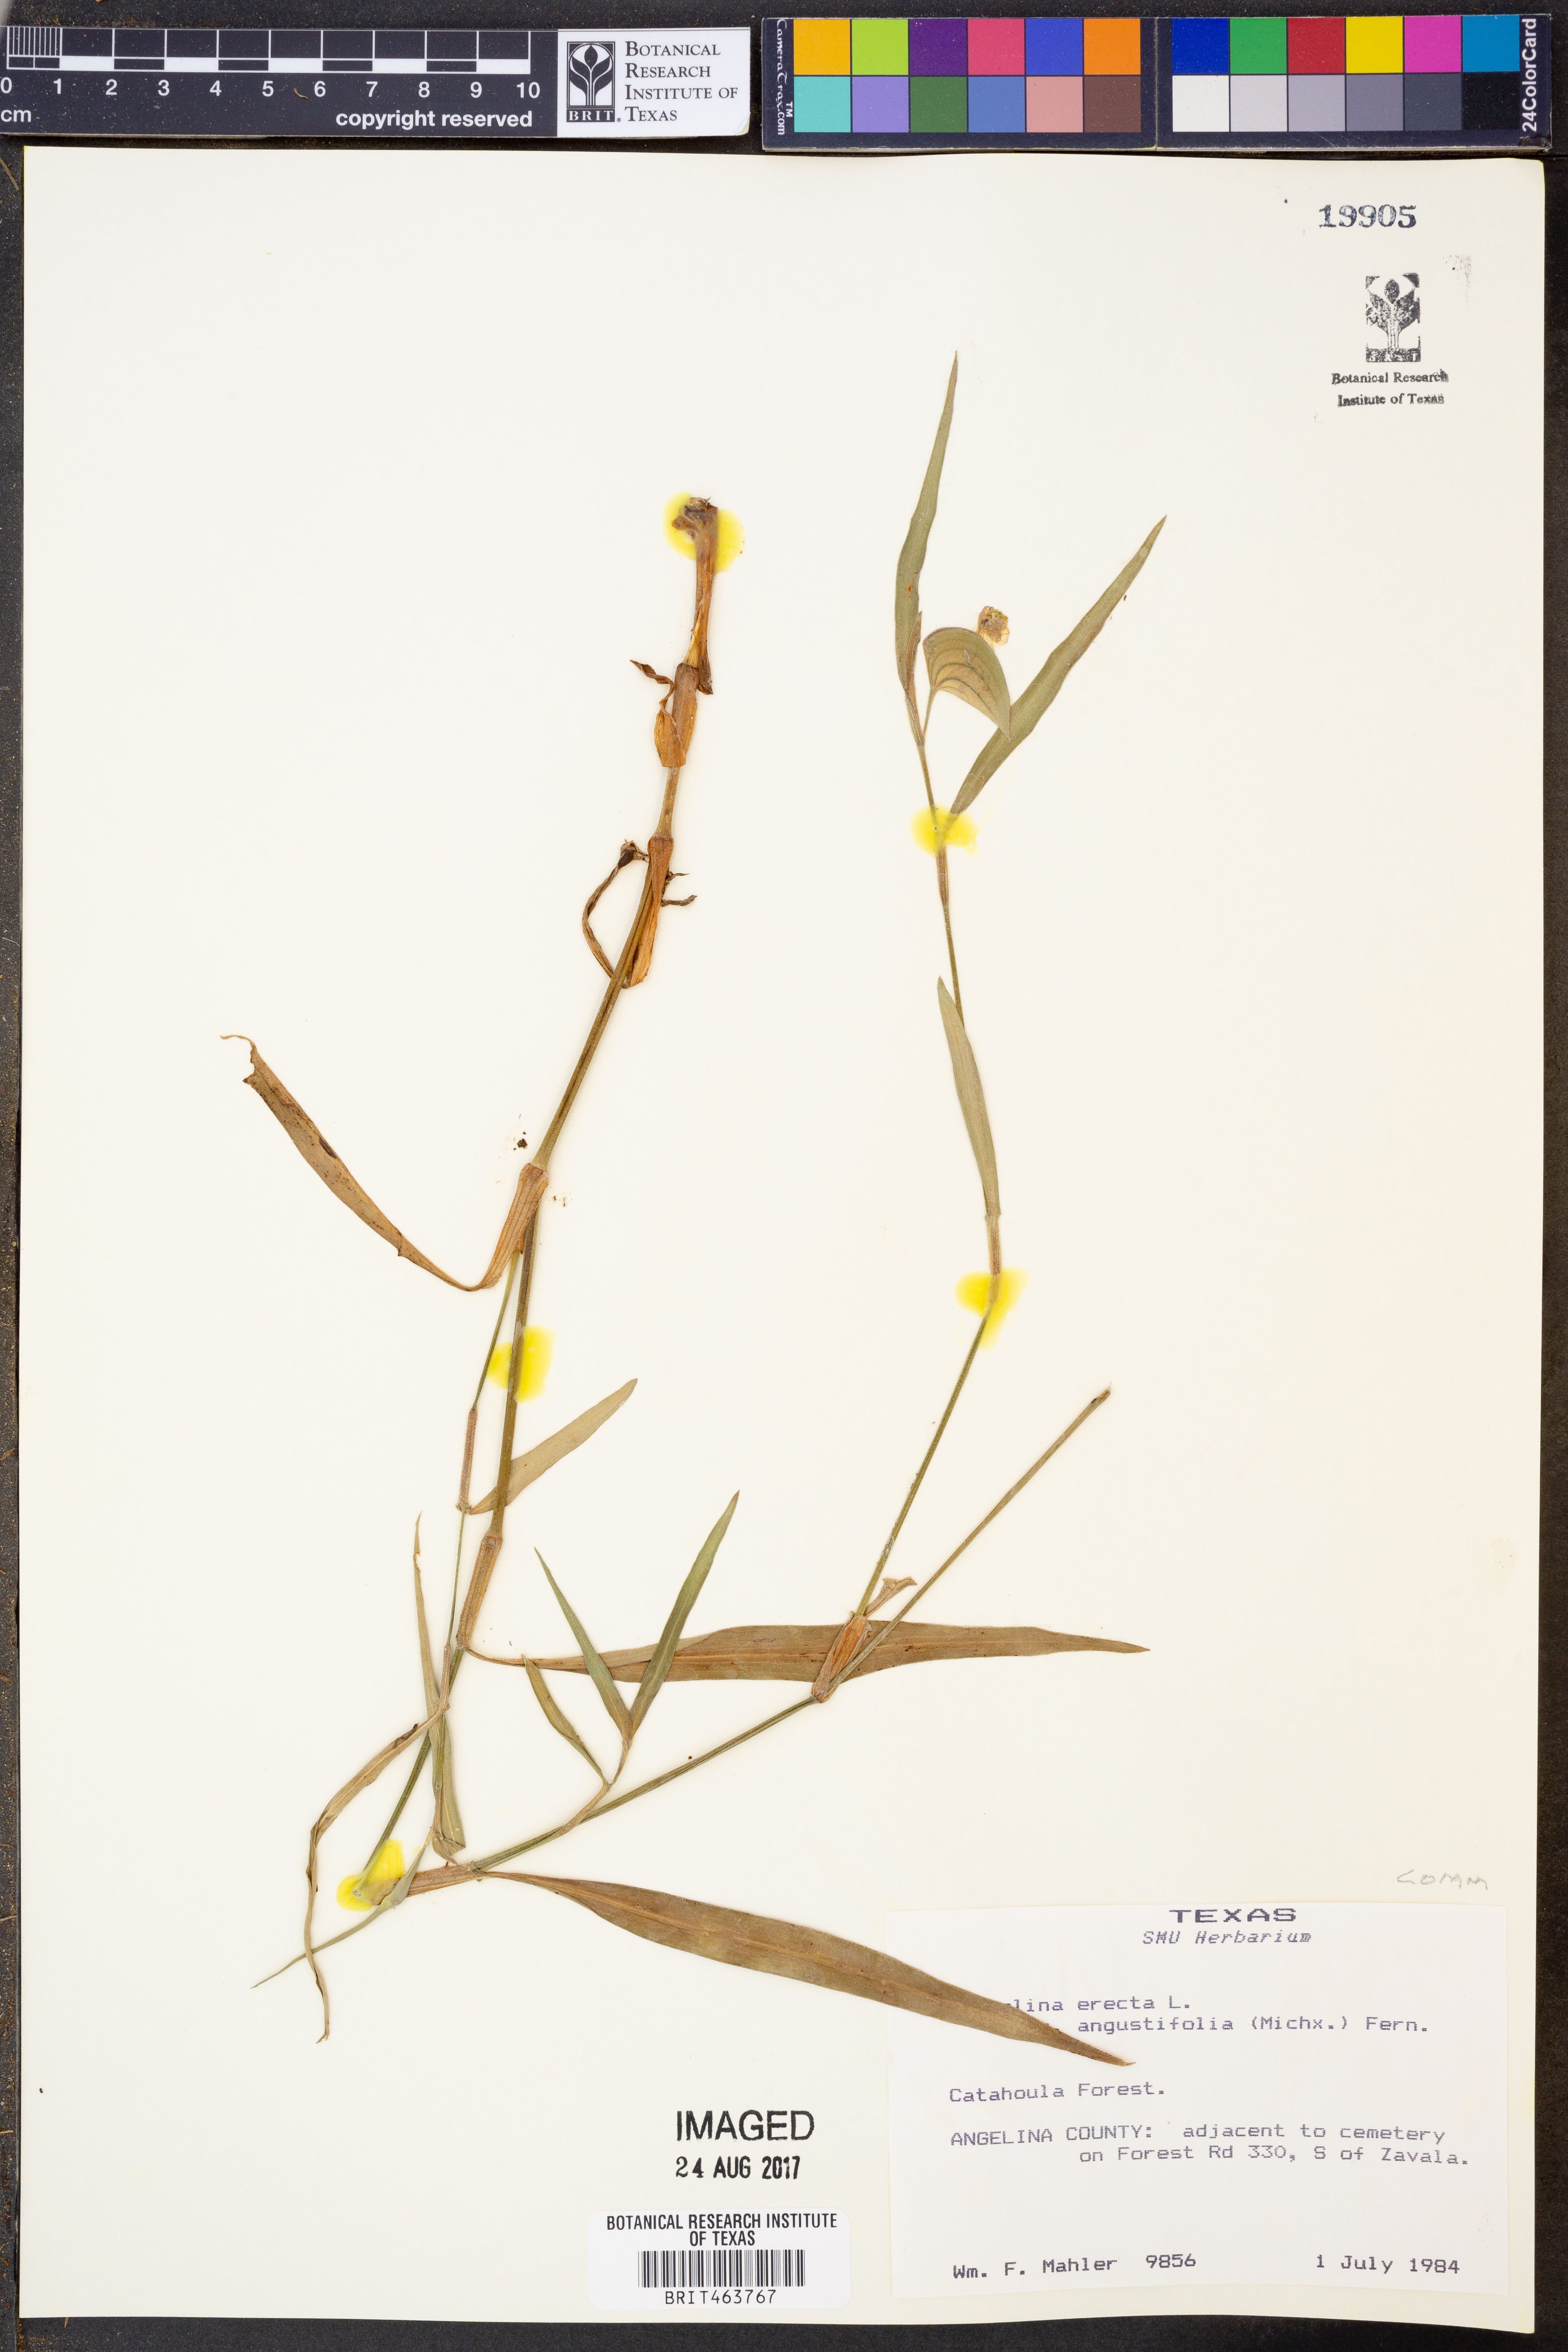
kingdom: Plantae
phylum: Tracheophyta
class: Liliopsida
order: Commelinales
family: Commelinaceae
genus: Commelina
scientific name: Commelina erecta
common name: Blousel blommetjie
